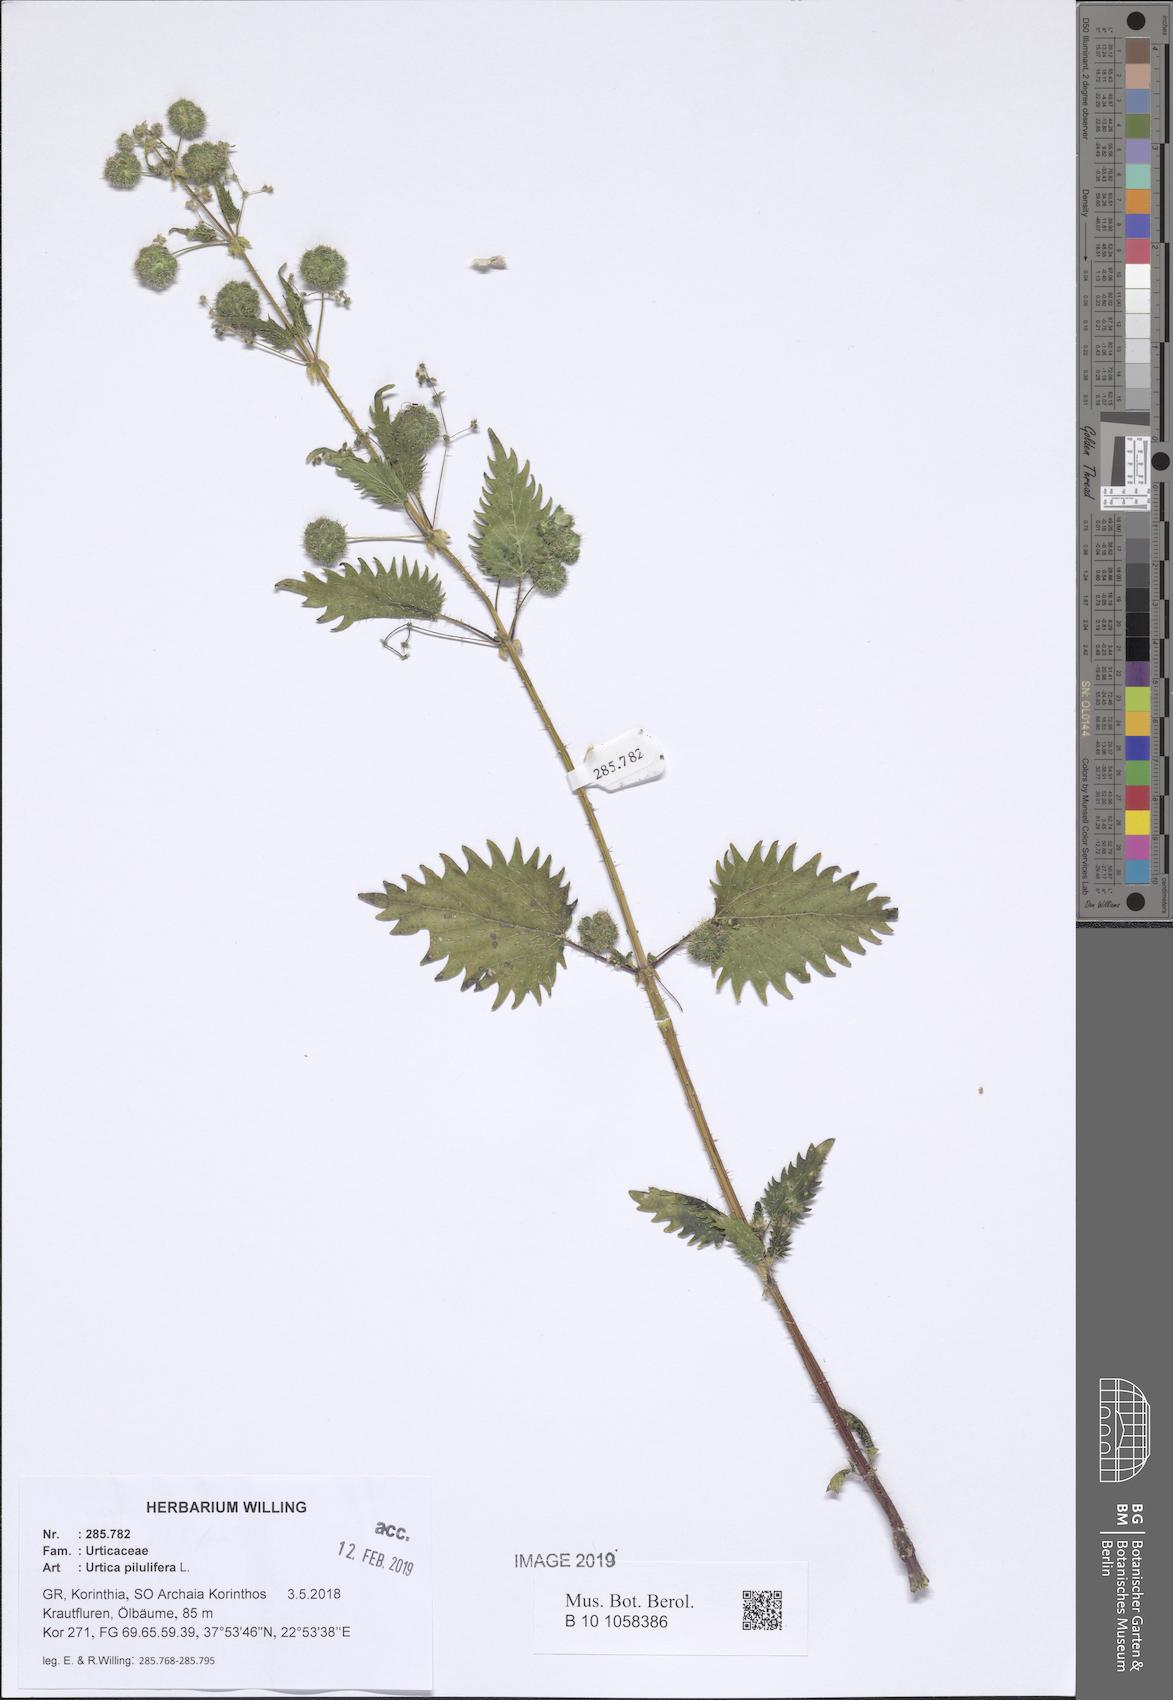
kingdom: Plantae
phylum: Tracheophyta
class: Magnoliopsida
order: Rosales
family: Urticaceae
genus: Urtica
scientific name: Urtica pilulifera
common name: Roman nettle
